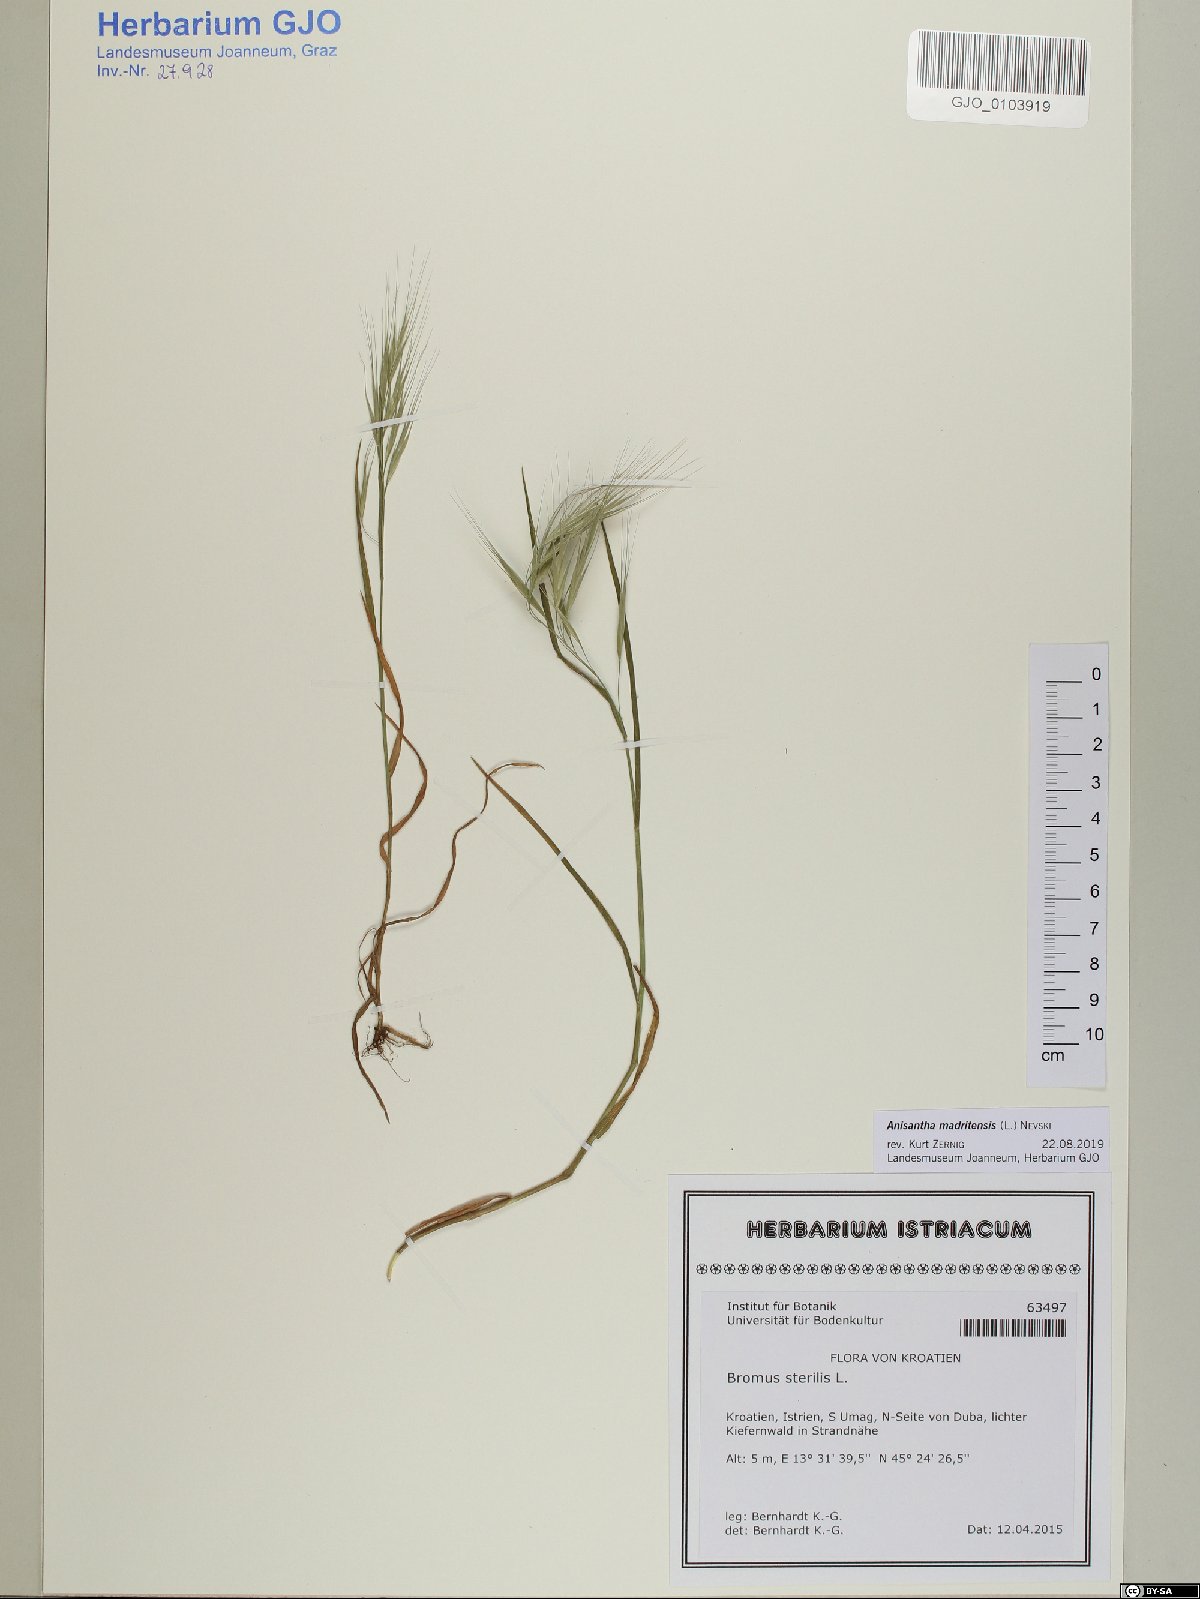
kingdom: Plantae
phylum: Tracheophyta
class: Liliopsida
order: Poales
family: Poaceae
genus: Bromus
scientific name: Bromus madritensis
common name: Compact brome
